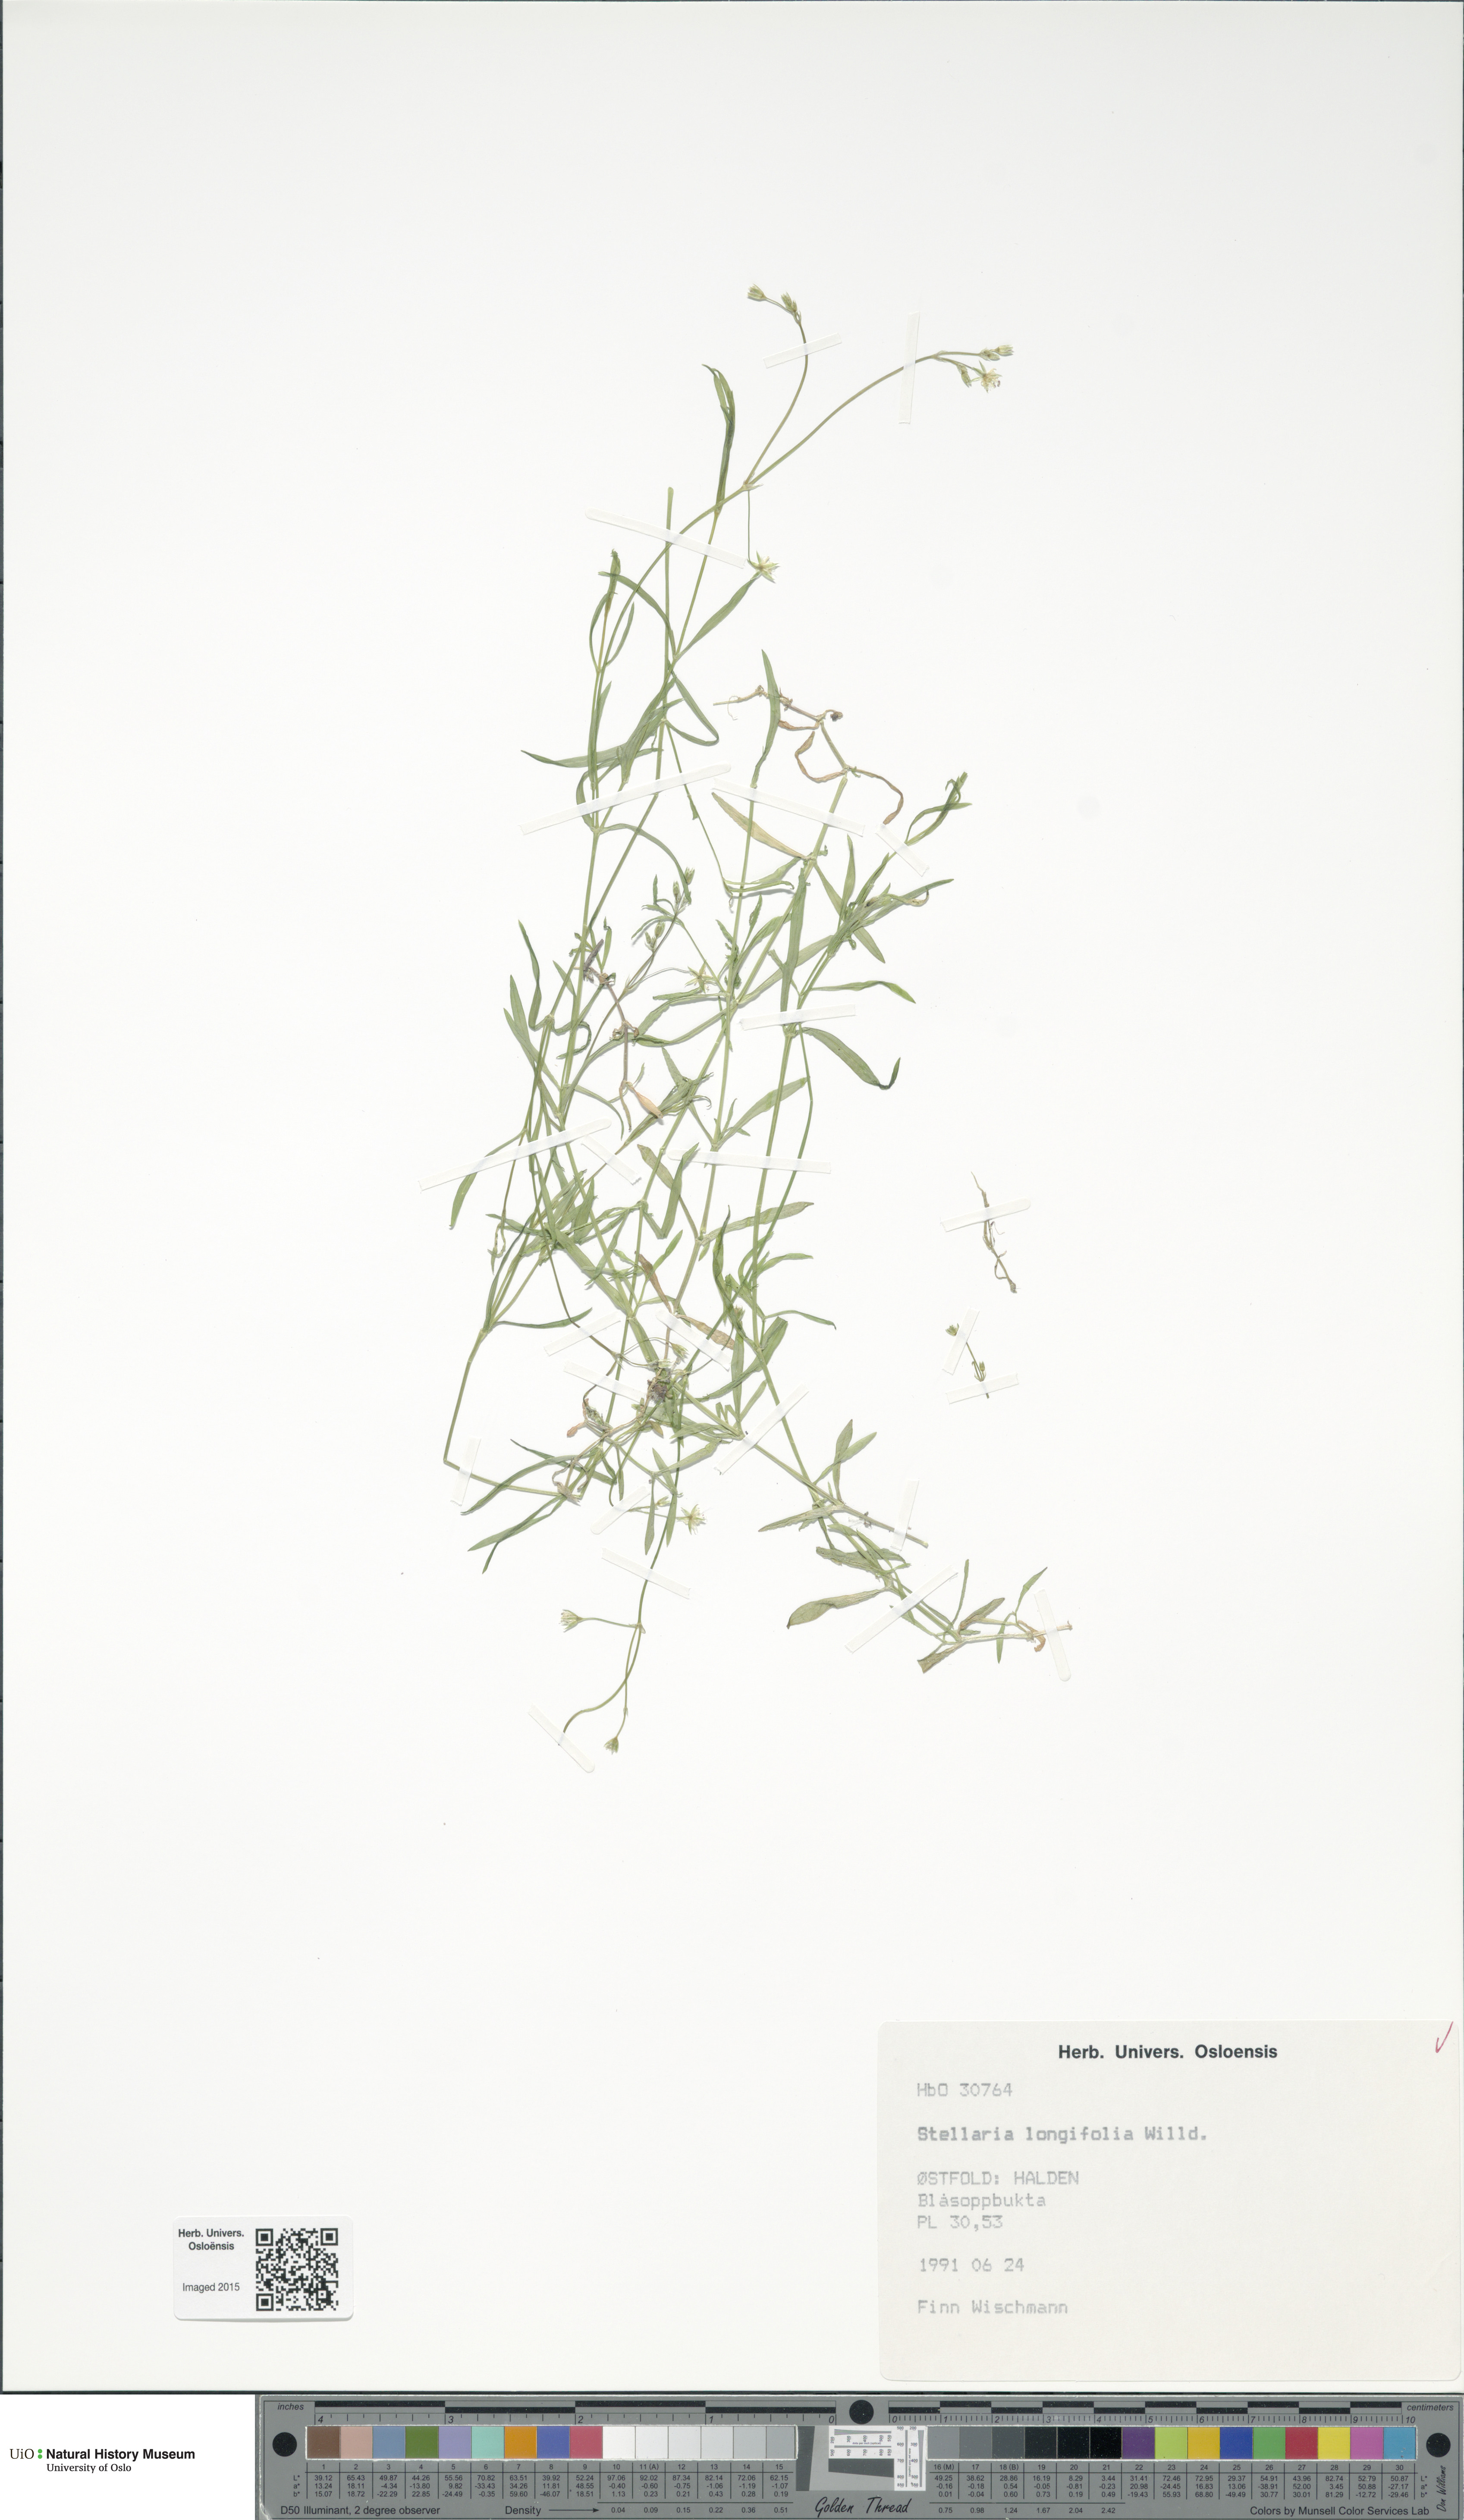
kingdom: Plantae
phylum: Tracheophyta
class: Magnoliopsida
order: Caryophyllales
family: Caryophyllaceae
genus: Stellaria
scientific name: Stellaria longifolia
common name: Long-leaved chickweed
